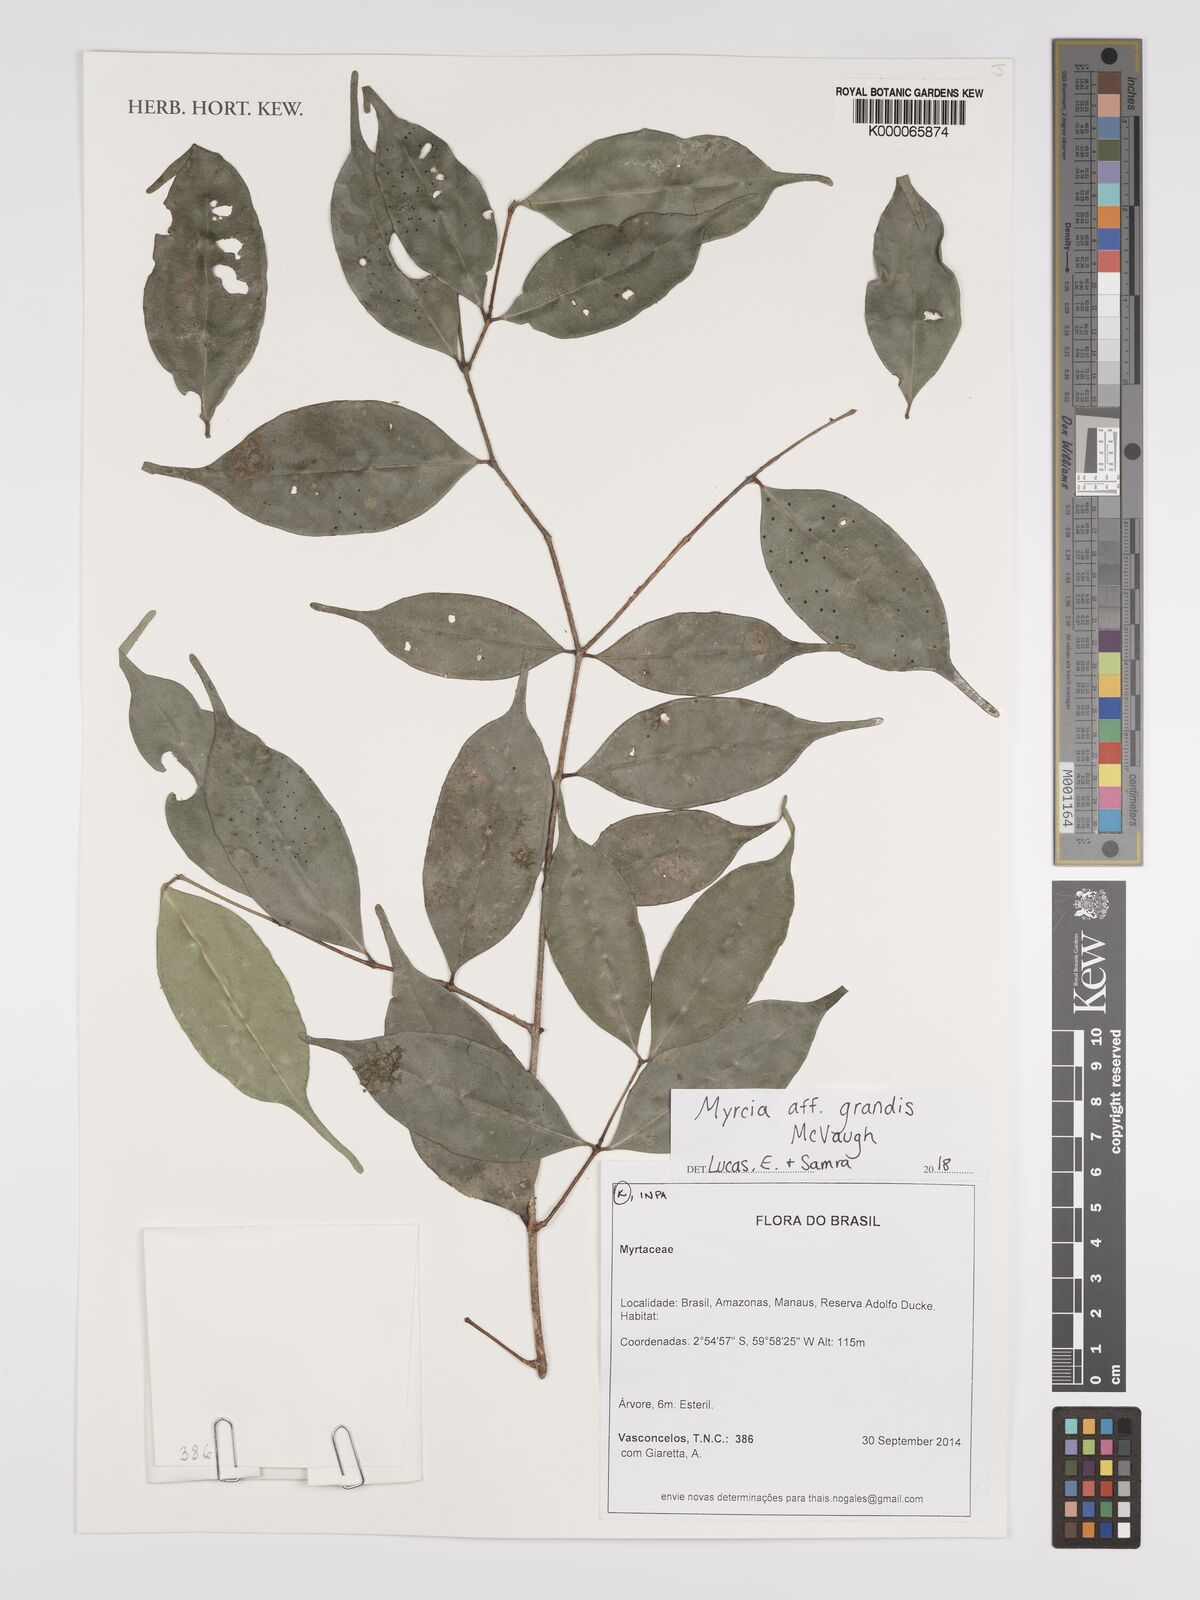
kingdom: Plantae
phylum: Tracheophyta
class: Magnoliopsida
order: Myrtales
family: Myrtaceae
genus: Myrcia
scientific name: Myrcia grandis
